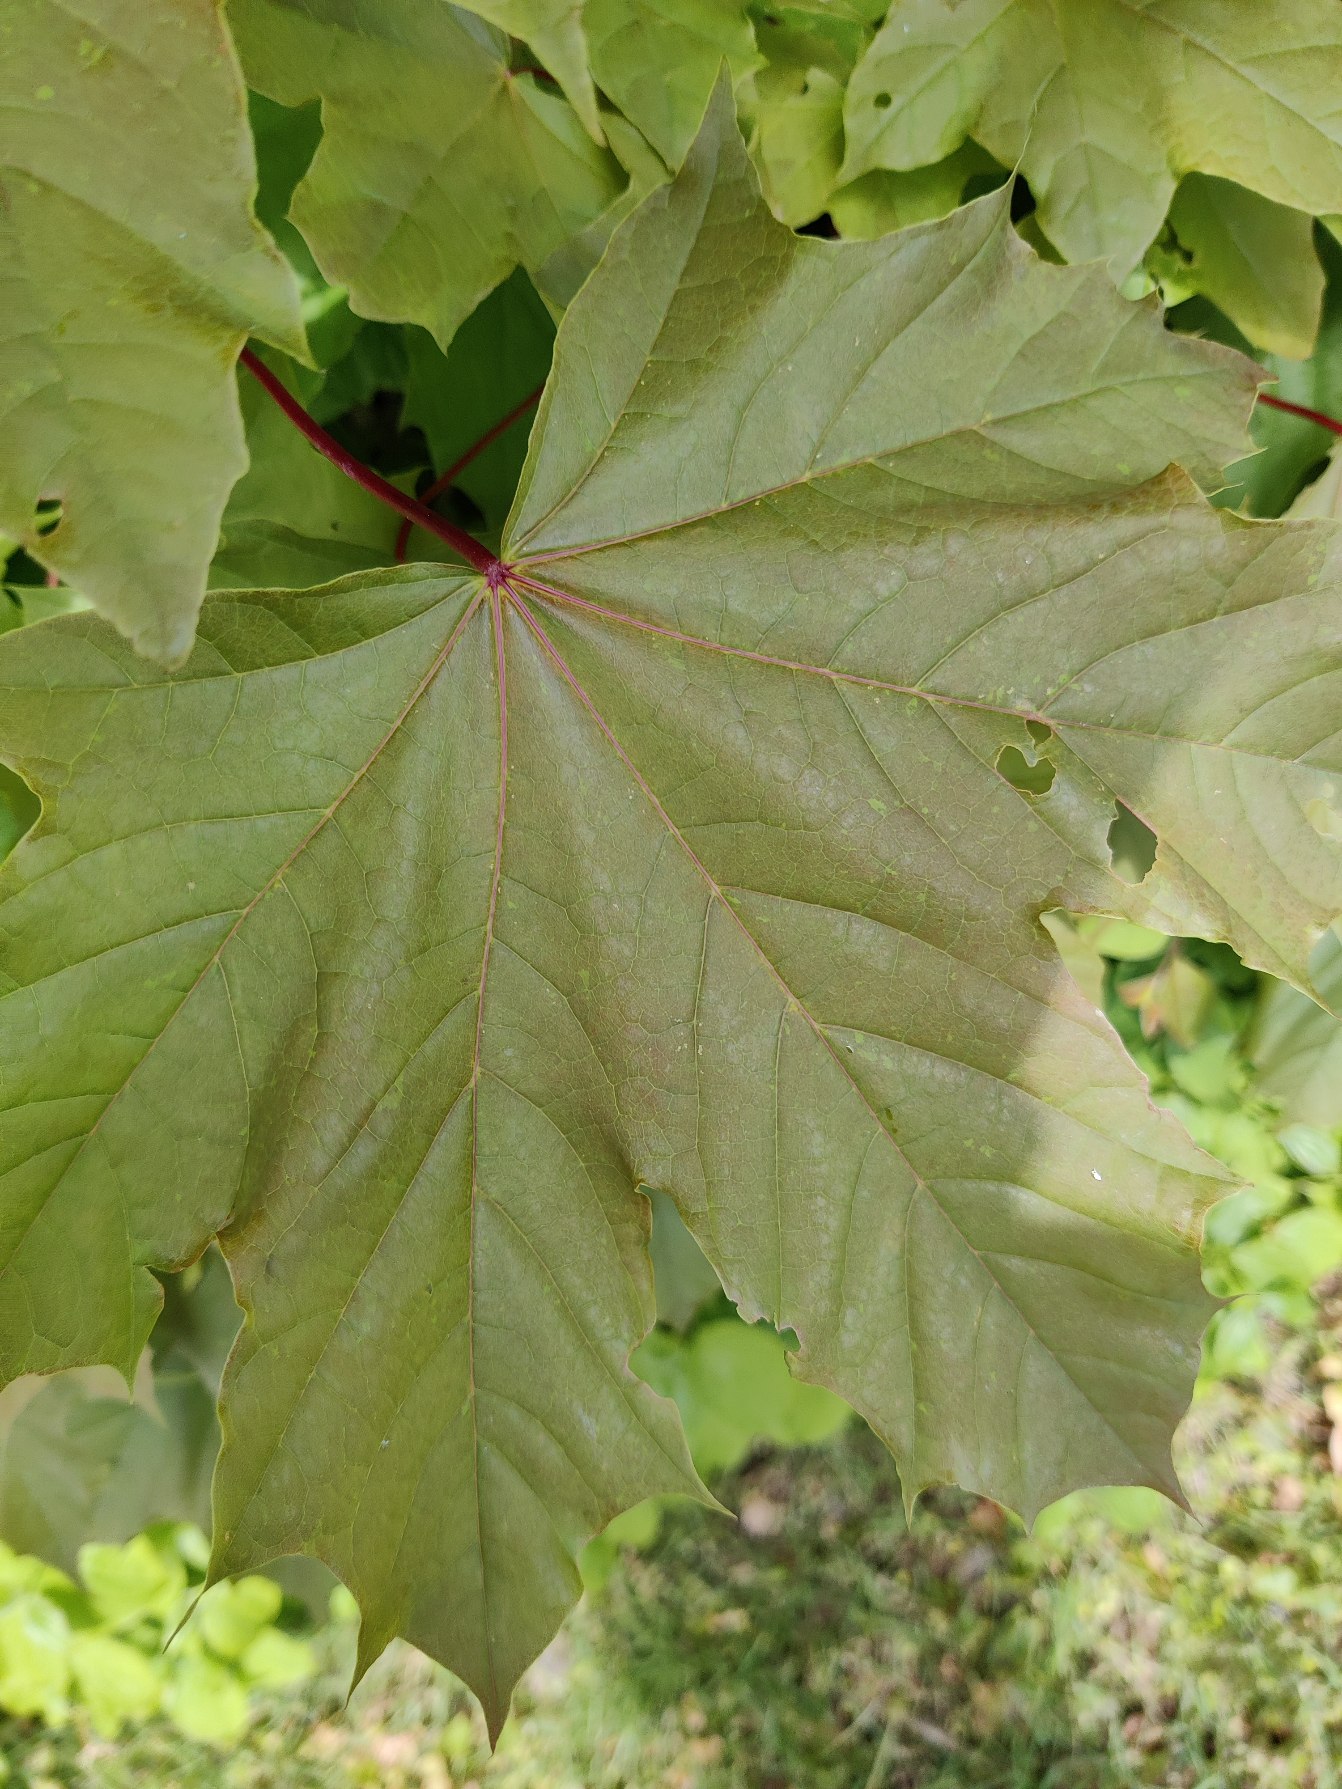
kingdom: Plantae
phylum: Tracheophyta
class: Magnoliopsida
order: Sapindales
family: Sapindaceae
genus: Acer
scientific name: Acer platanoides
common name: Spids-løn
